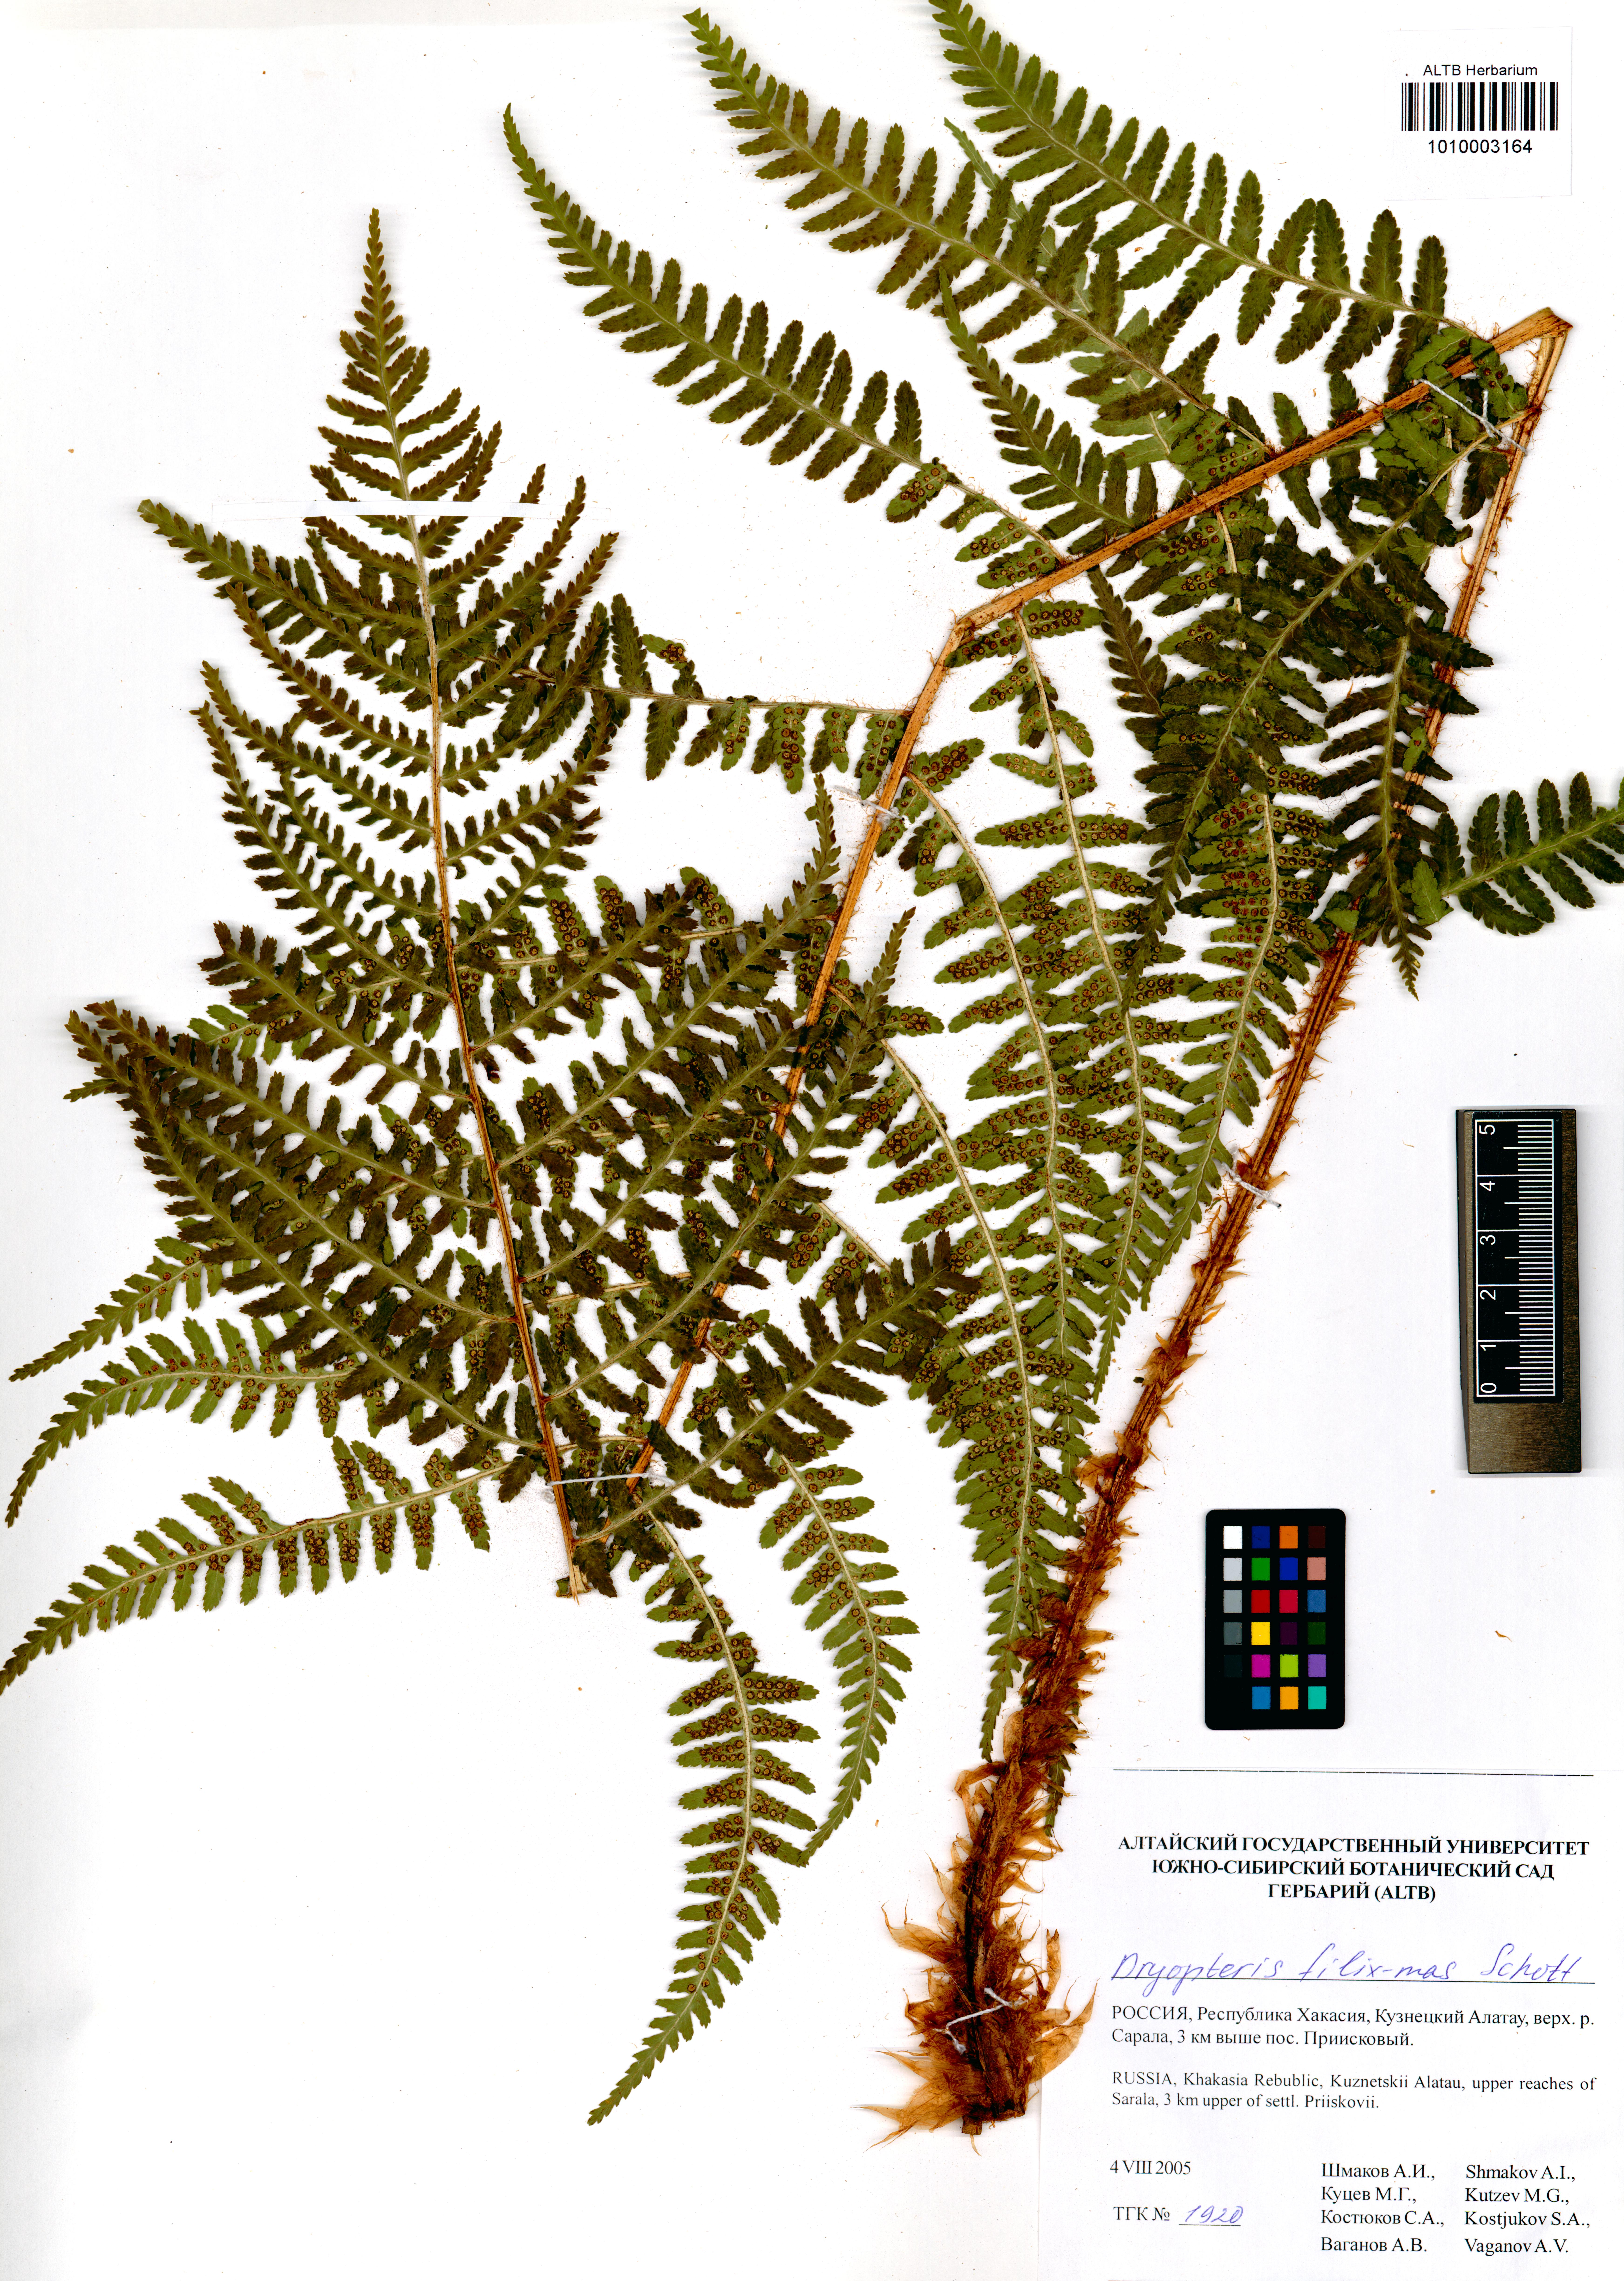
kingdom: Plantae
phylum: Tracheophyta
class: Polypodiopsida
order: Polypodiales
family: Dryopteridaceae
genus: Dryopteris
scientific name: Dryopteris filix-mas
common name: Male fern
